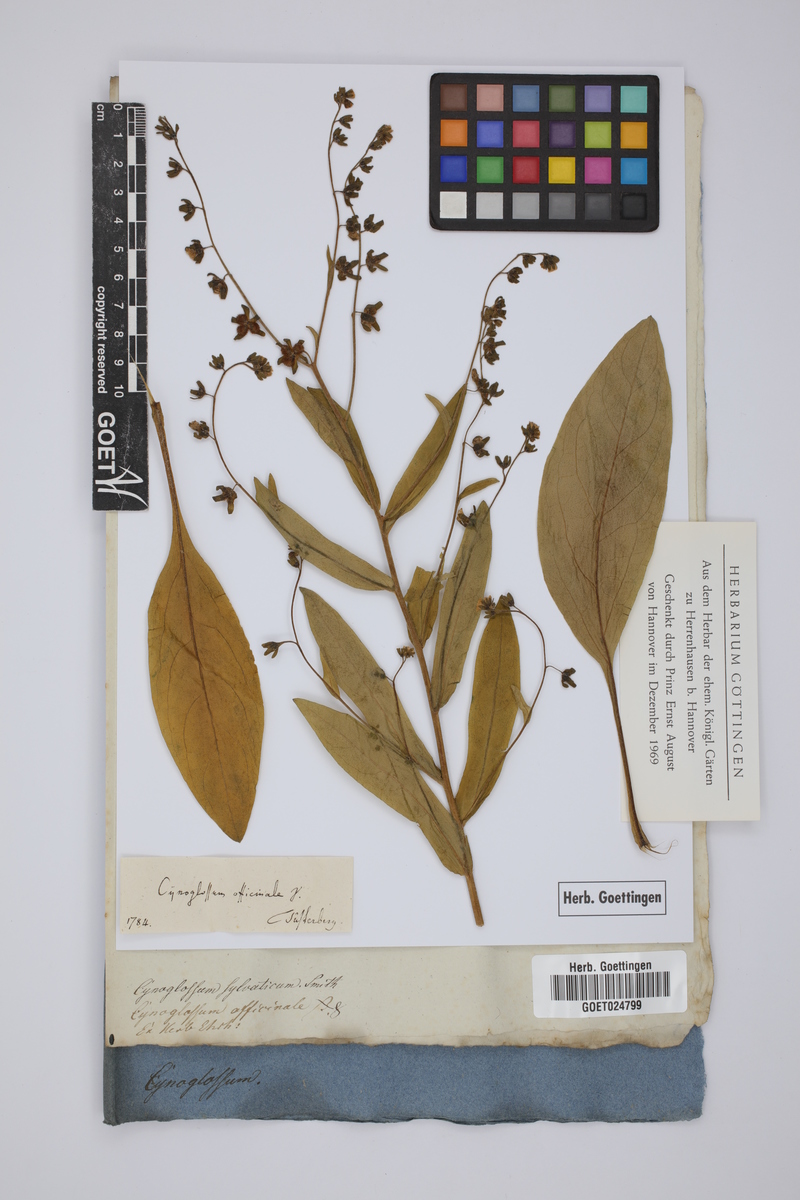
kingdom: Plantae
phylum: Tracheophyta
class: Magnoliopsida
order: Boraginales
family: Boraginaceae
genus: Cynoglossum
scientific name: Cynoglossum officinale
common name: Hound's-tongue
